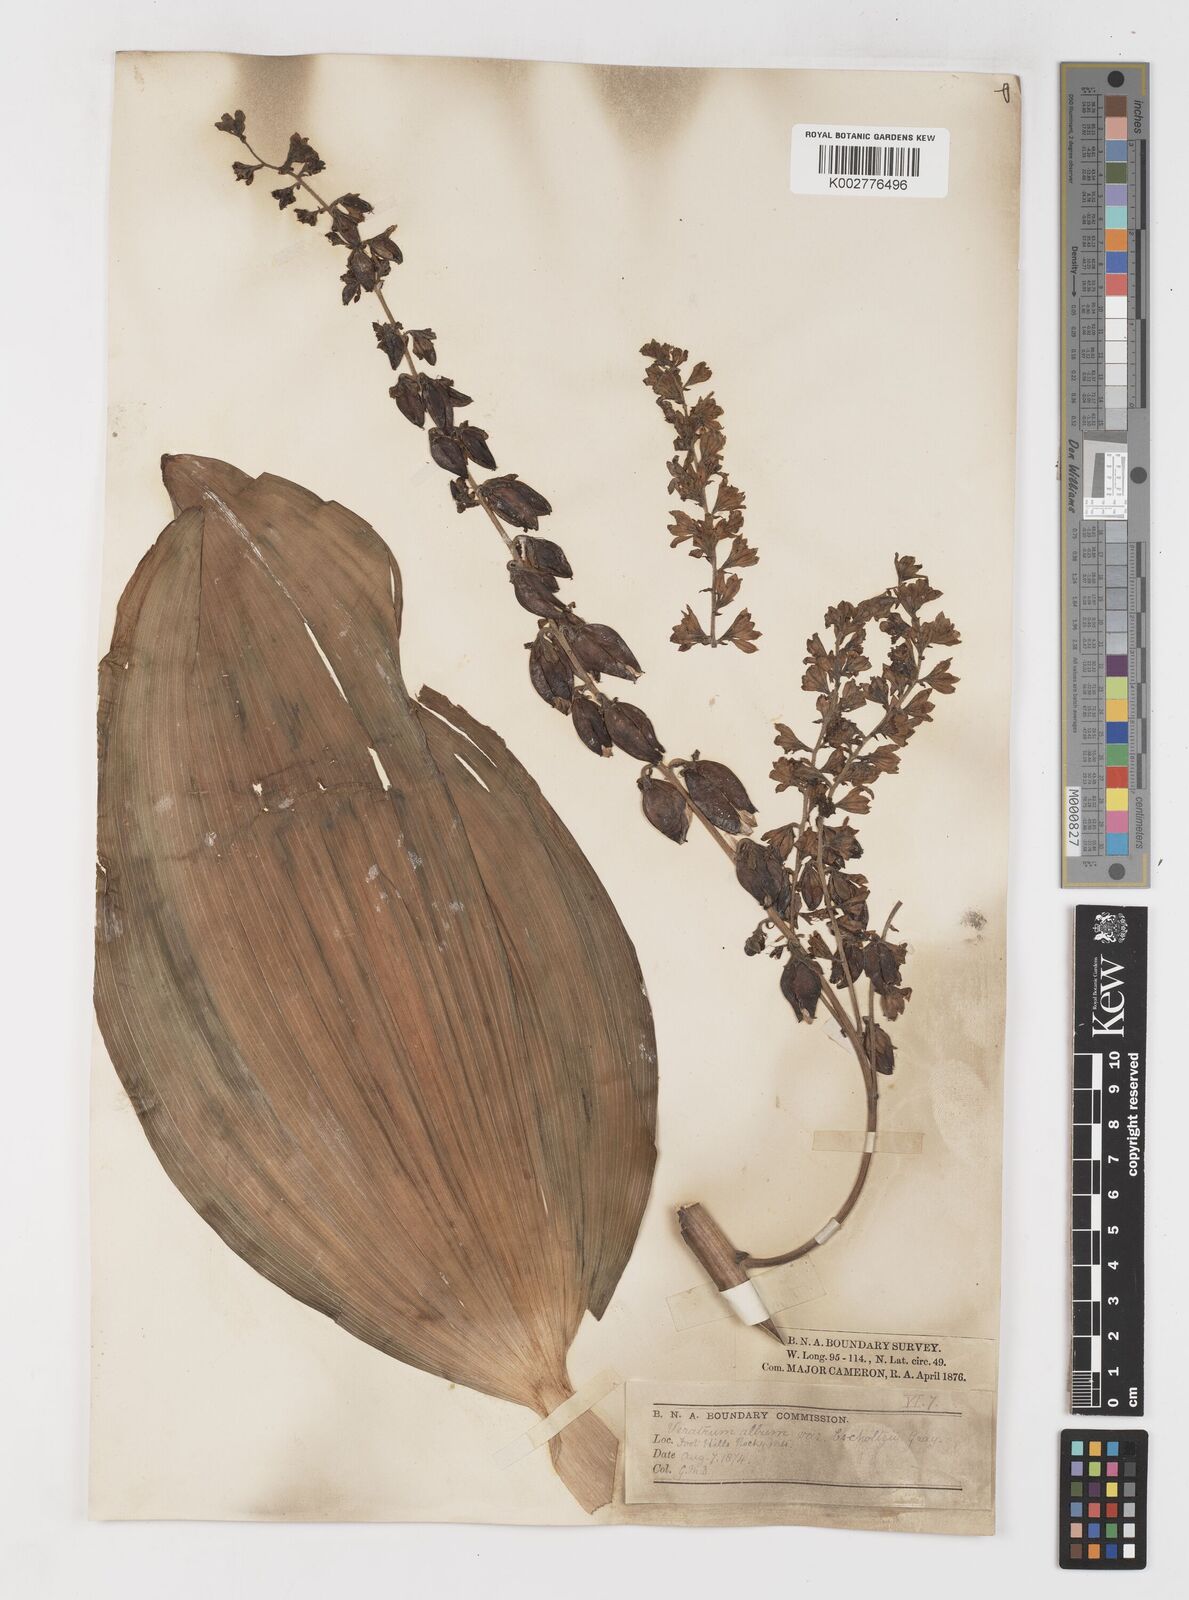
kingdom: Plantae
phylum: Tracheophyta
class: Liliopsida
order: Liliales
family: Melanthiaceae
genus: Veratrum
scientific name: Veratrum viride
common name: American false hellebore
